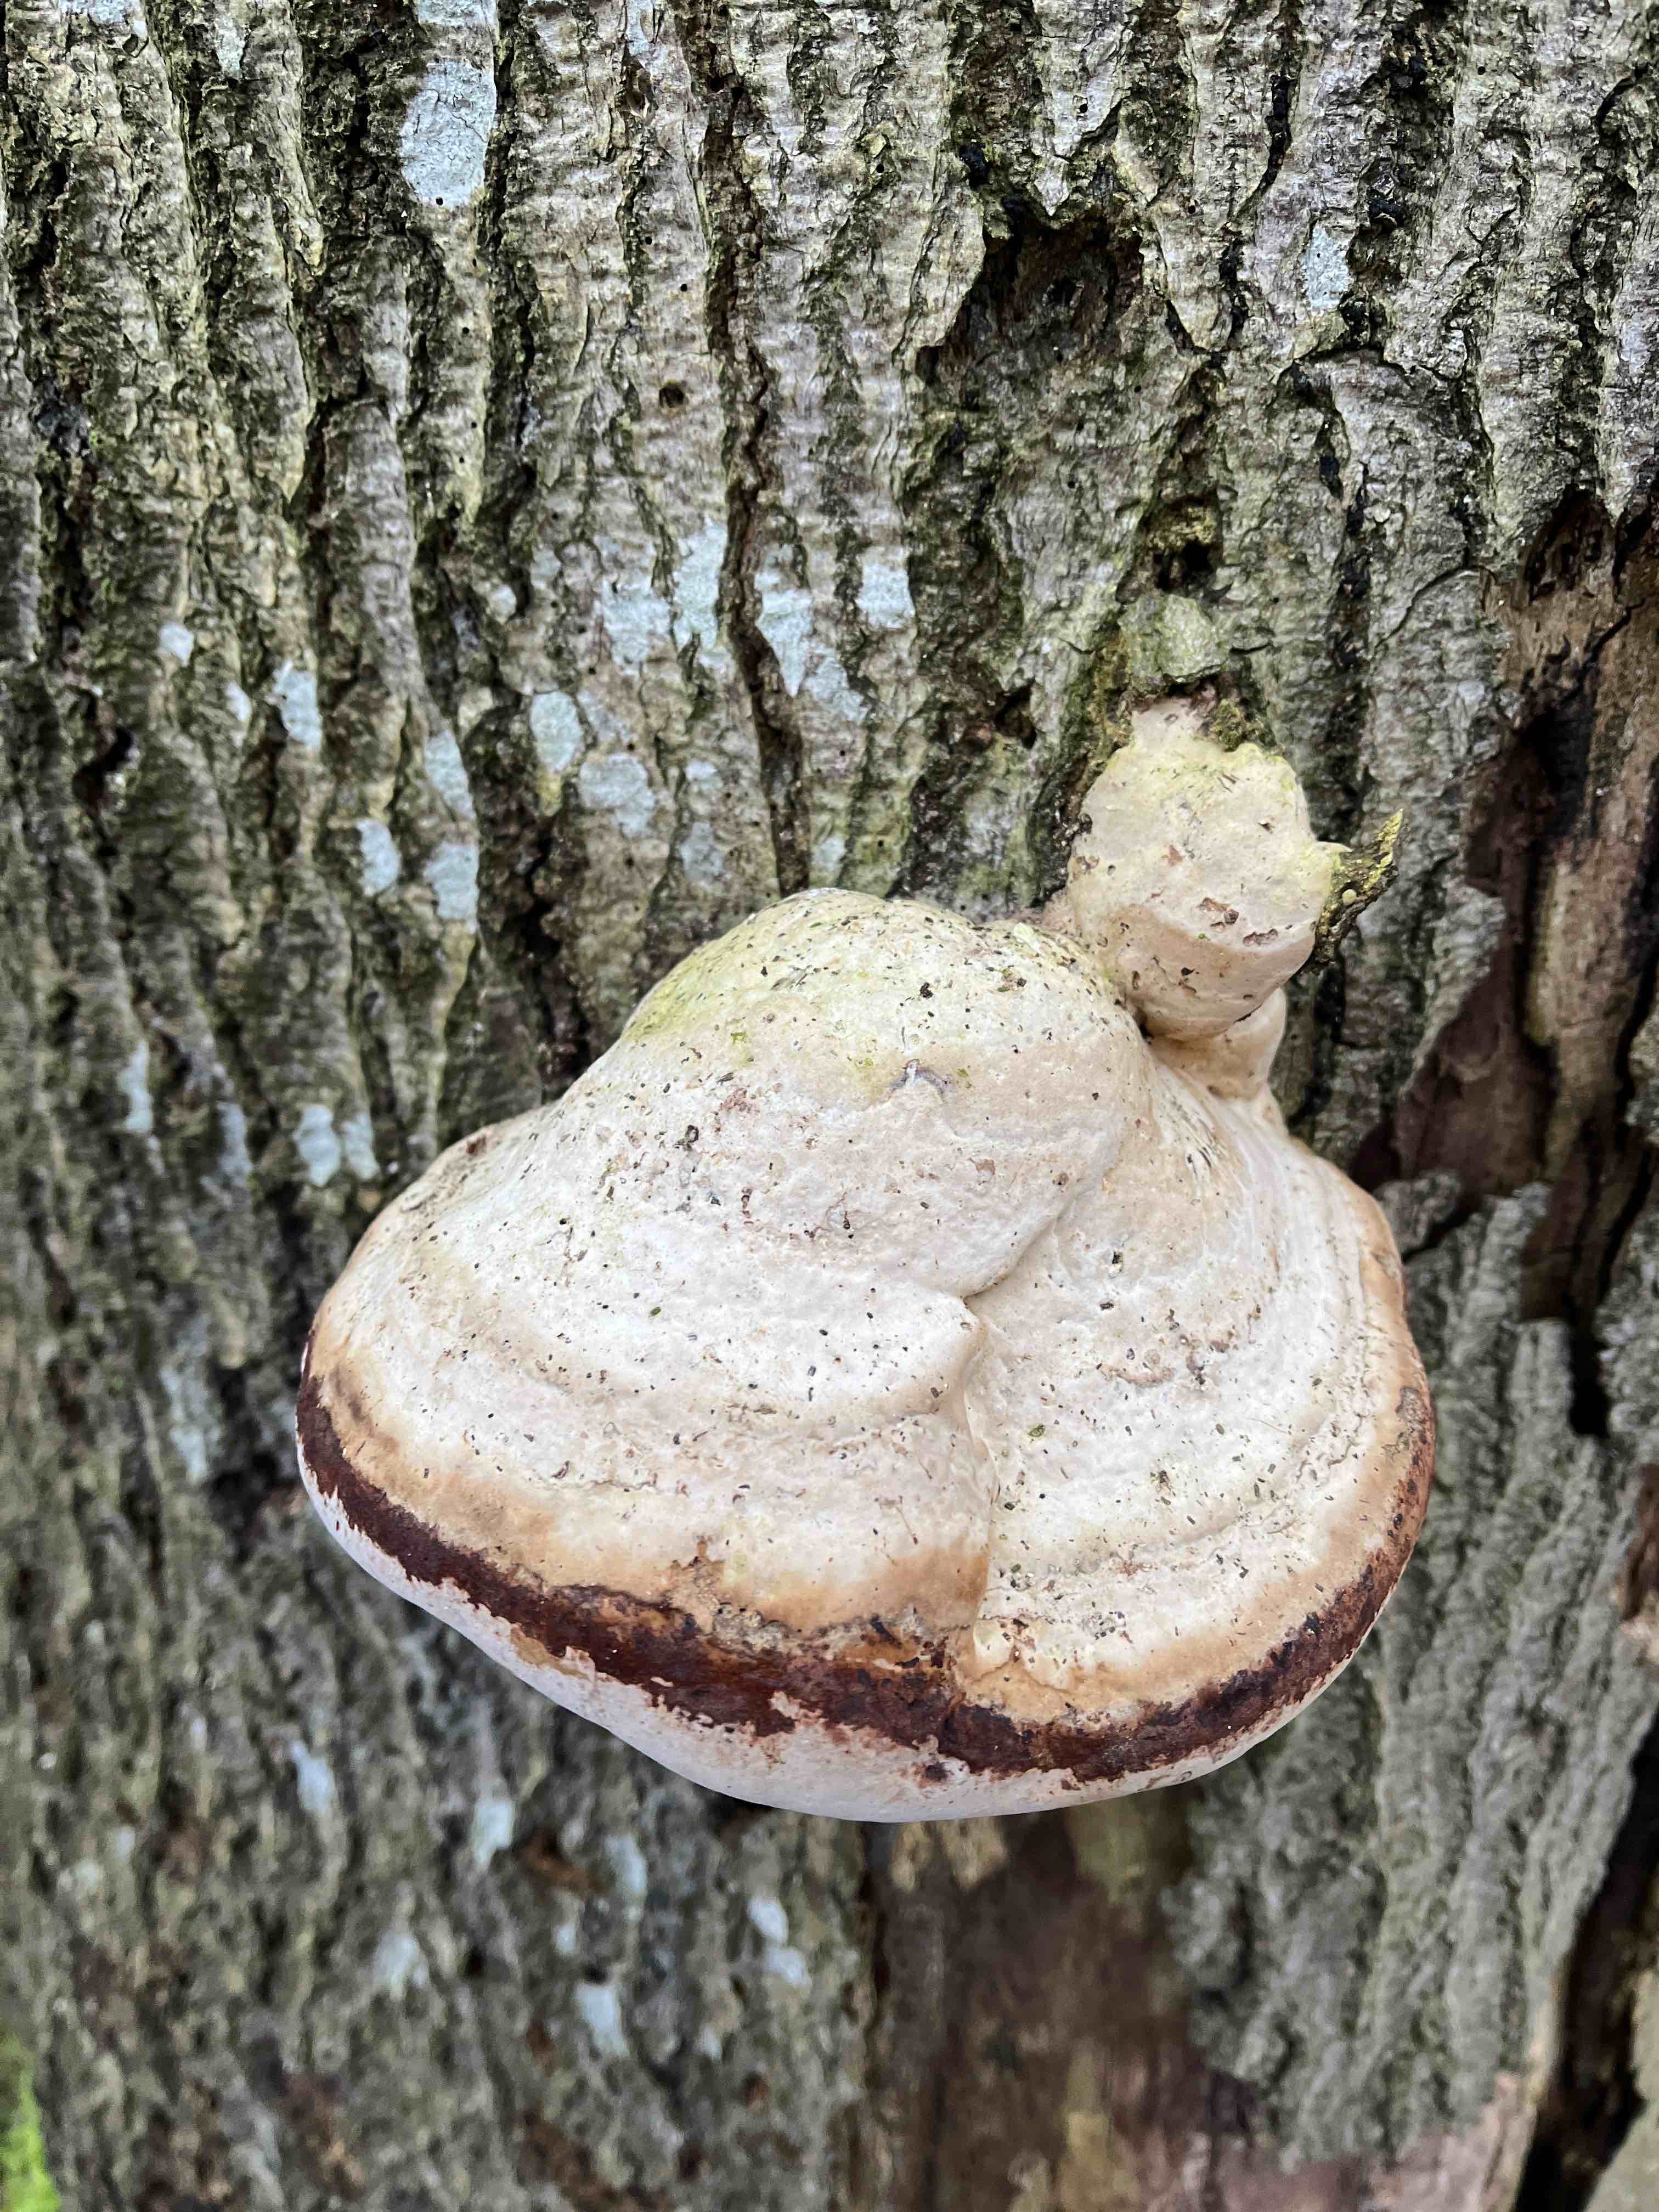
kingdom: Fungi
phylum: Basidiomycota
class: Agaricomycetes
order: Polyporales
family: Polyporaceae
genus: Fomes
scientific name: Fomes fomentarius
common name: tøndersvamp
